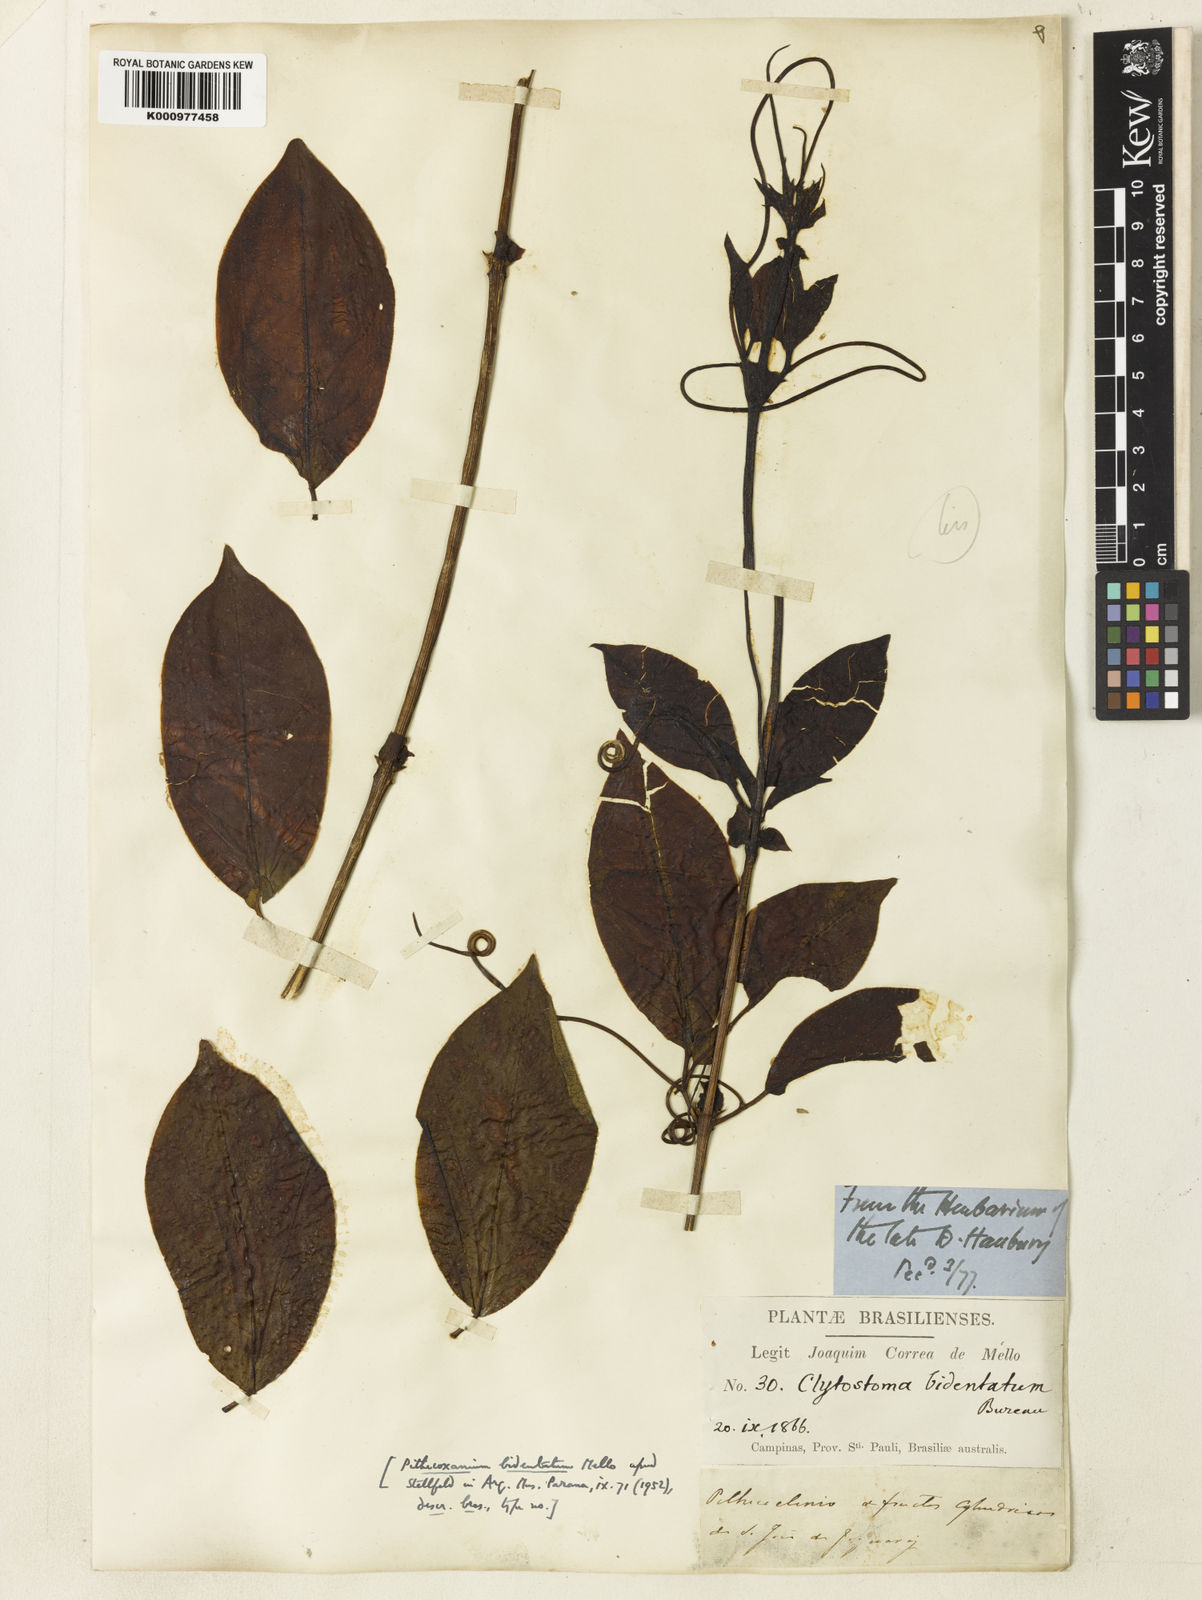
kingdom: Plantae
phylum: Tracheophyta
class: Magnoliopsida
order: Lamiales
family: Bignoniaceae
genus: Bignonia
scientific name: Bignonia
